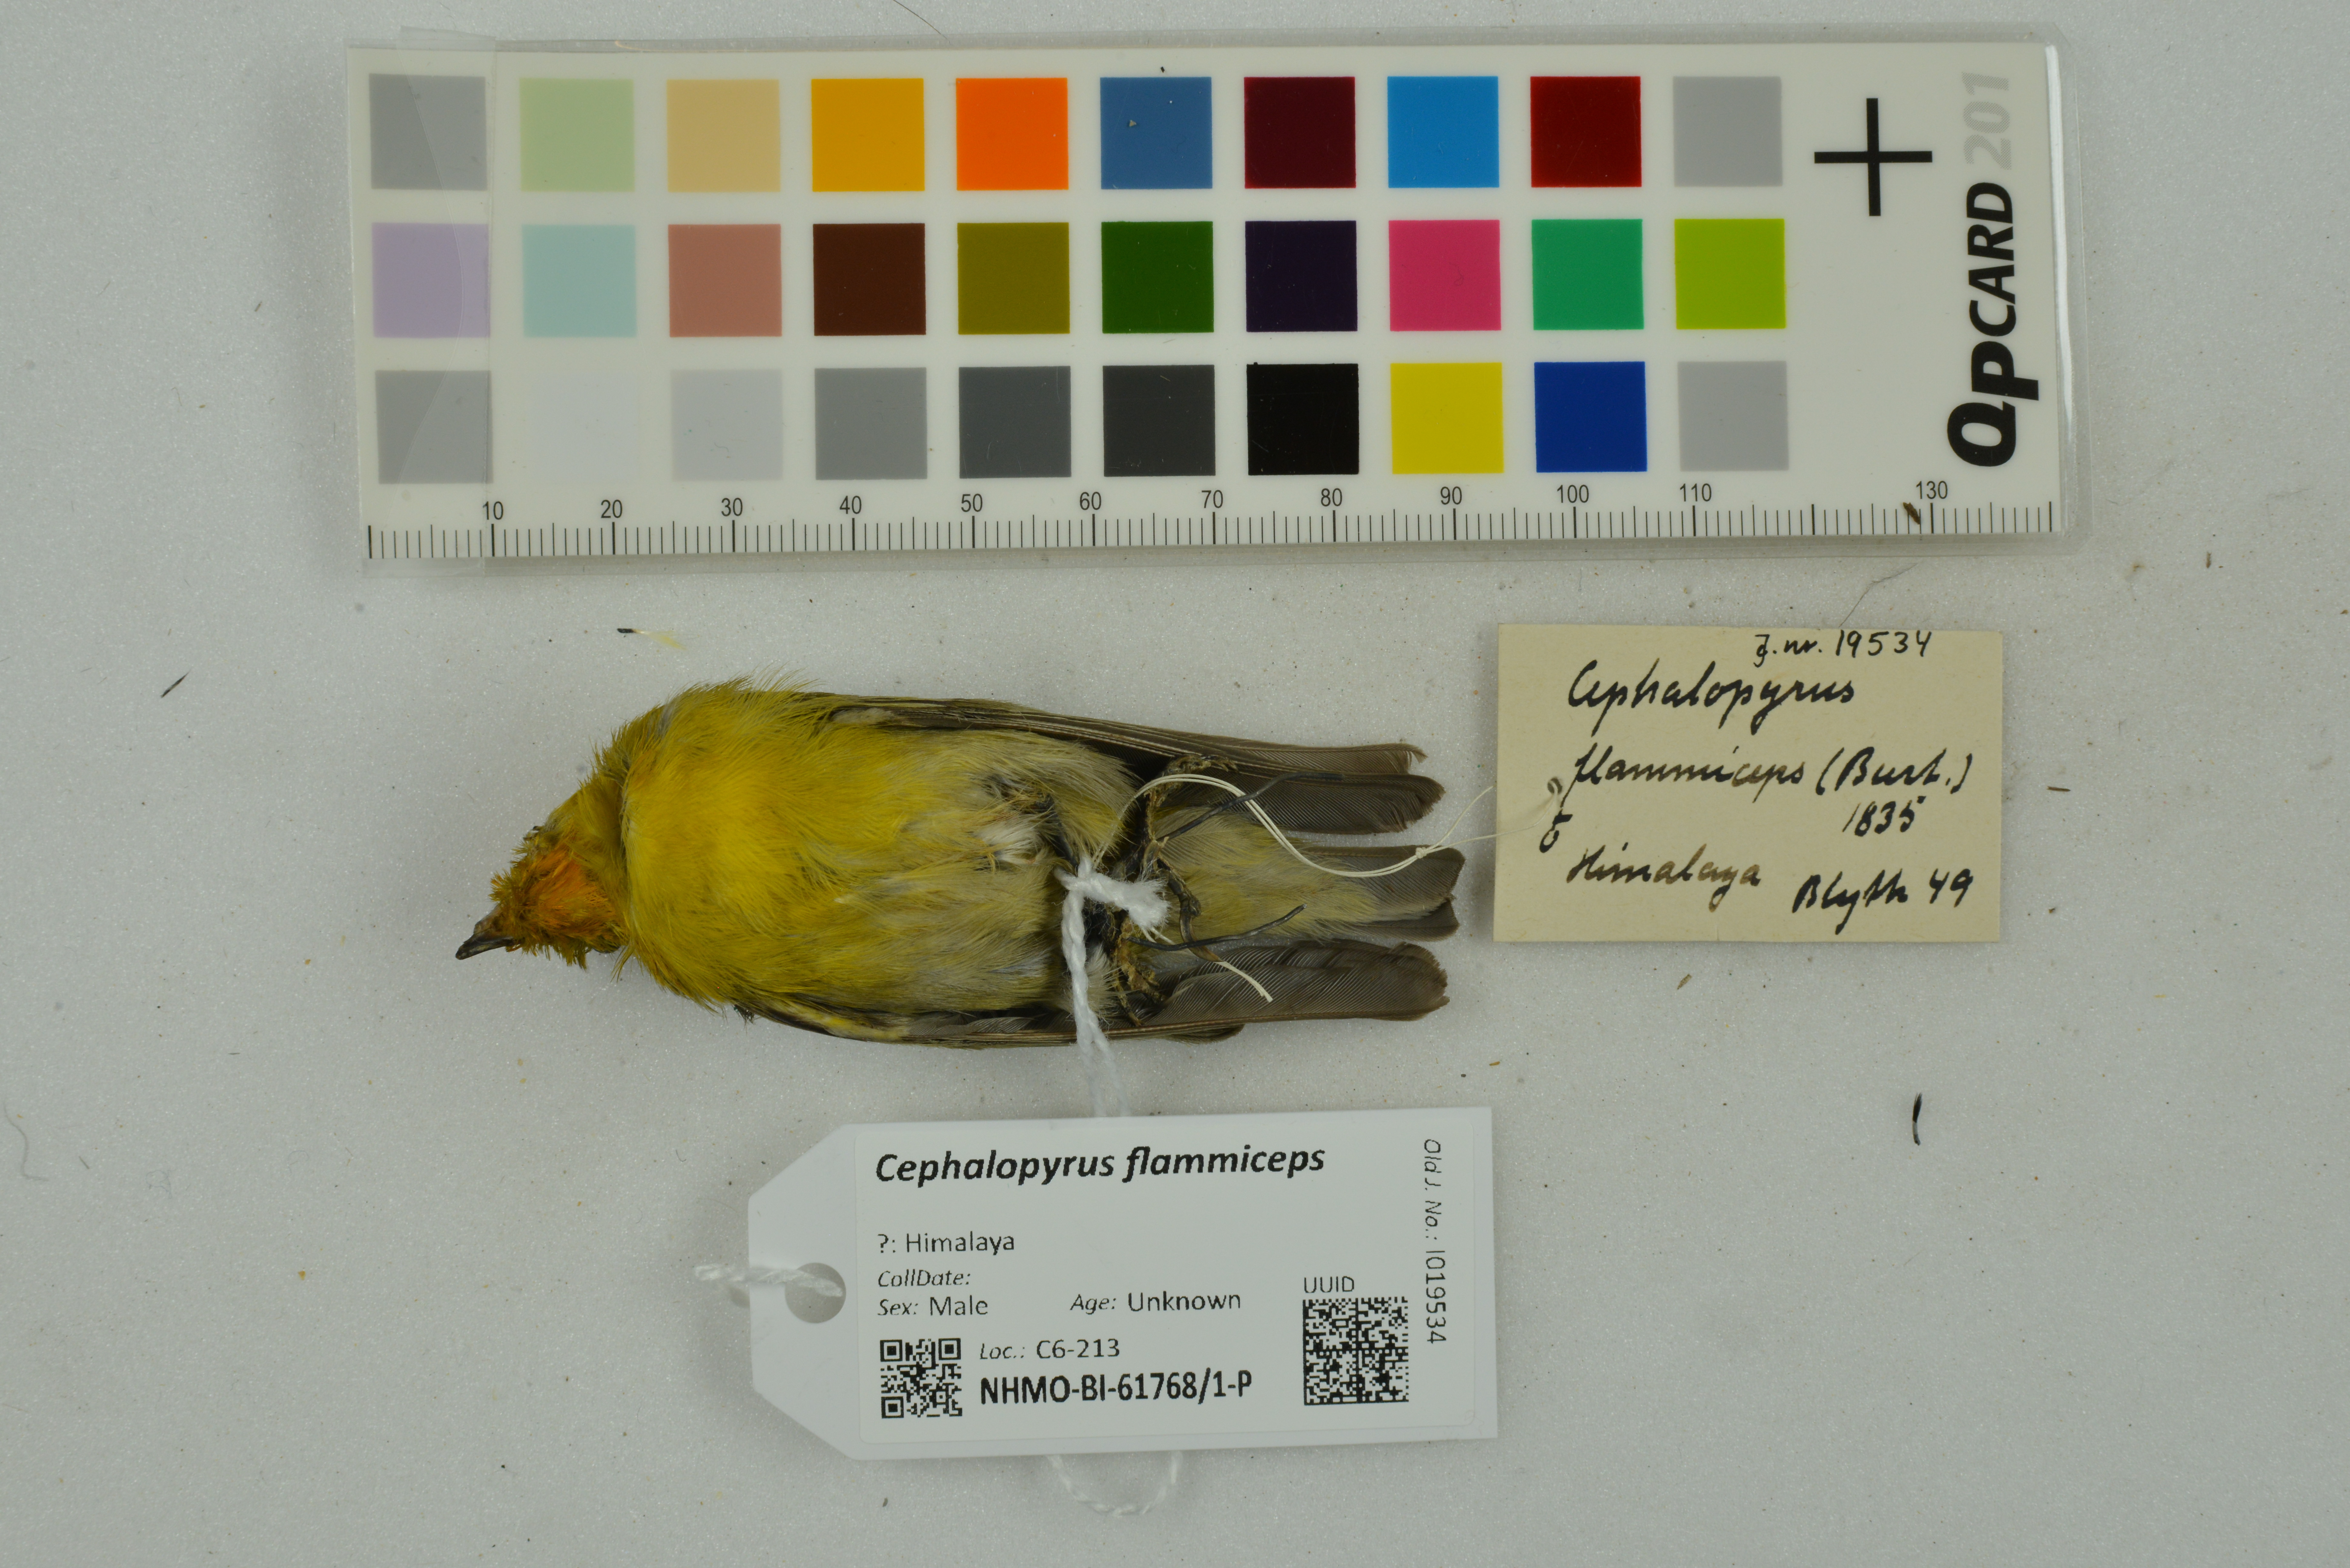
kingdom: Animalia
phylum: Chordata
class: Aves
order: Passeriformes
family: Remizidae
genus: Cephalopyrus
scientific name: Cephalopyrus flammiceps
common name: Fire-capped tit
